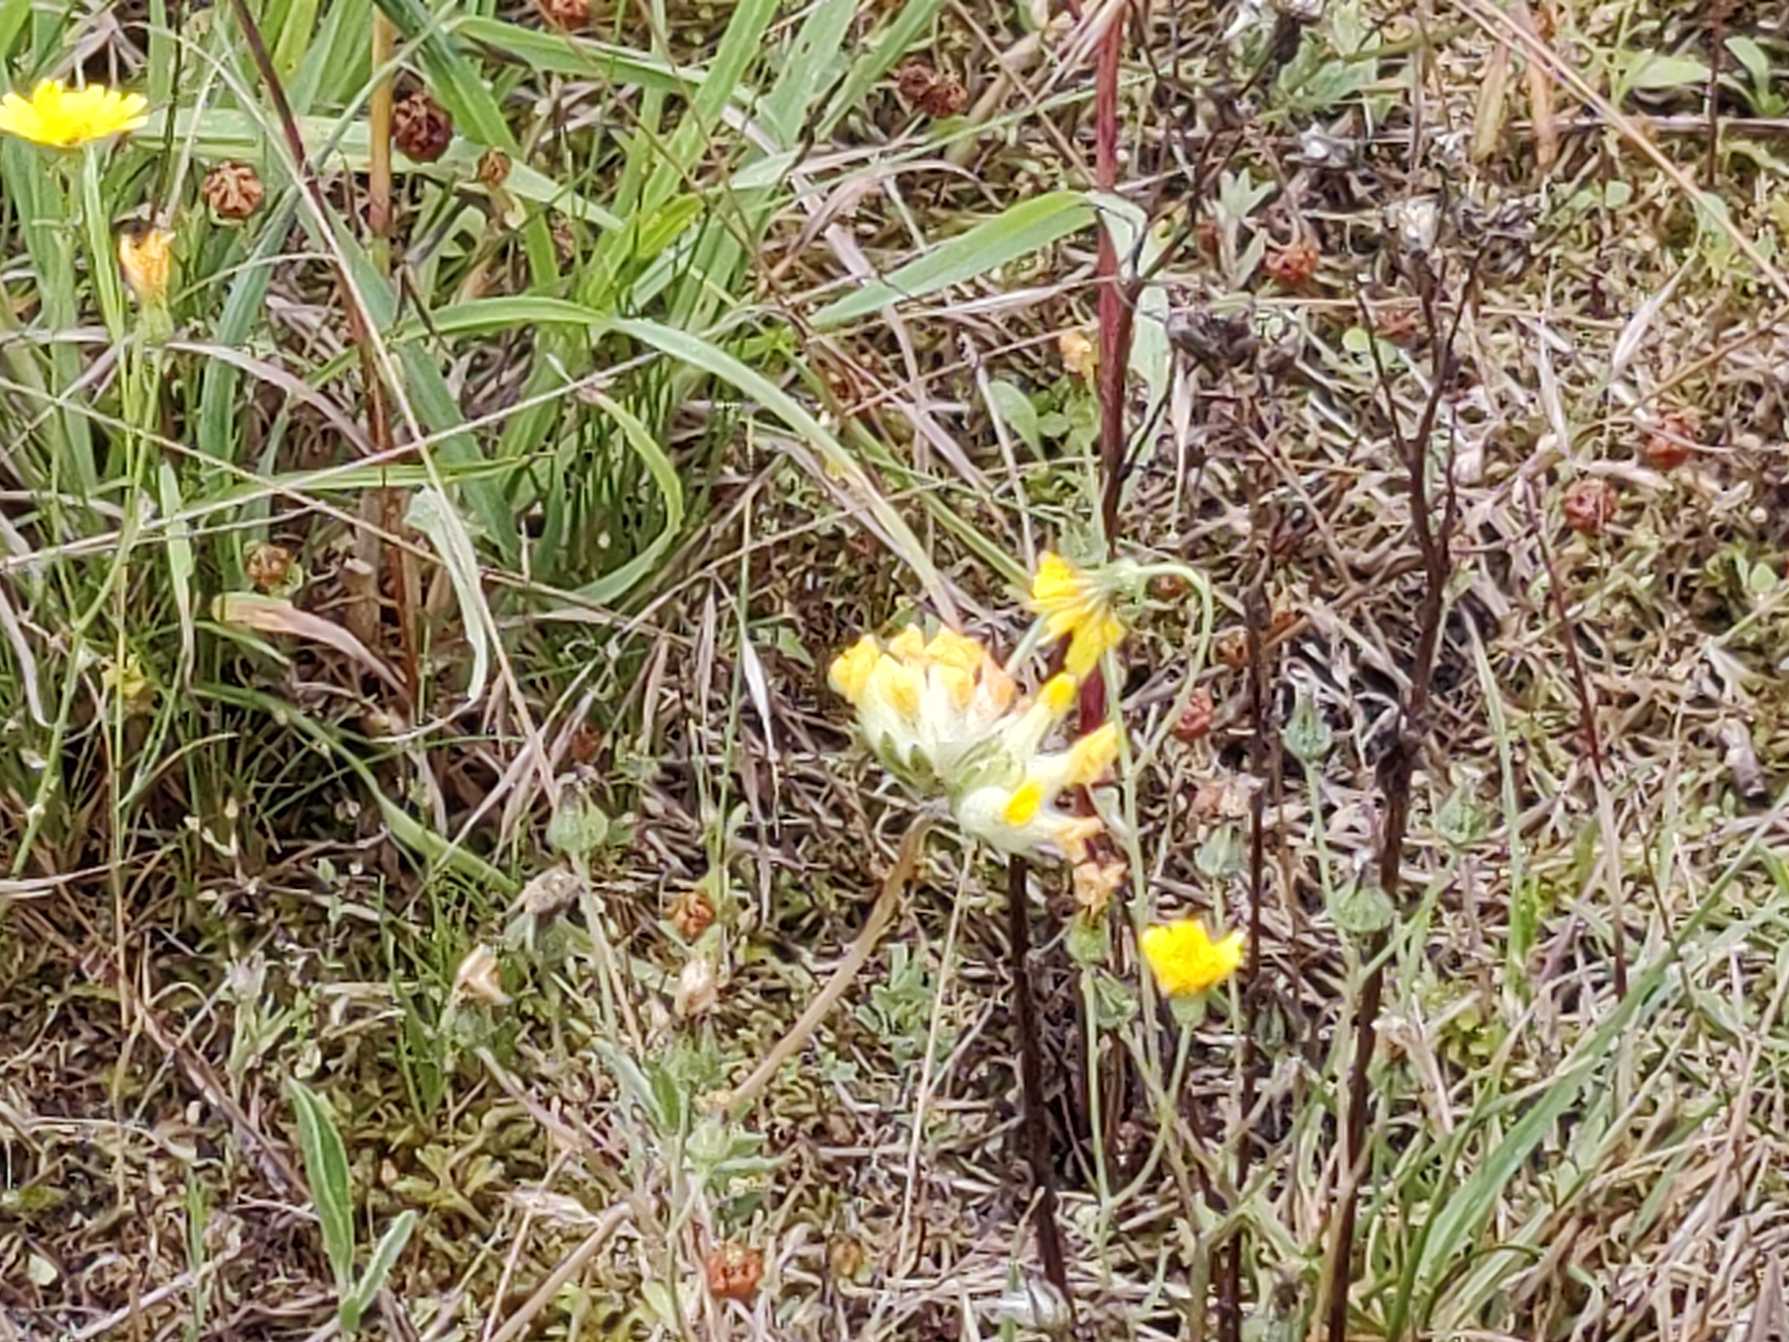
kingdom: Plantae
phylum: Tracheophyta
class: Magnoliopsida
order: Fabales
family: Fabaceae
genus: Anthyllis
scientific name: Anthyllis vulneraria
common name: Rundbælg
